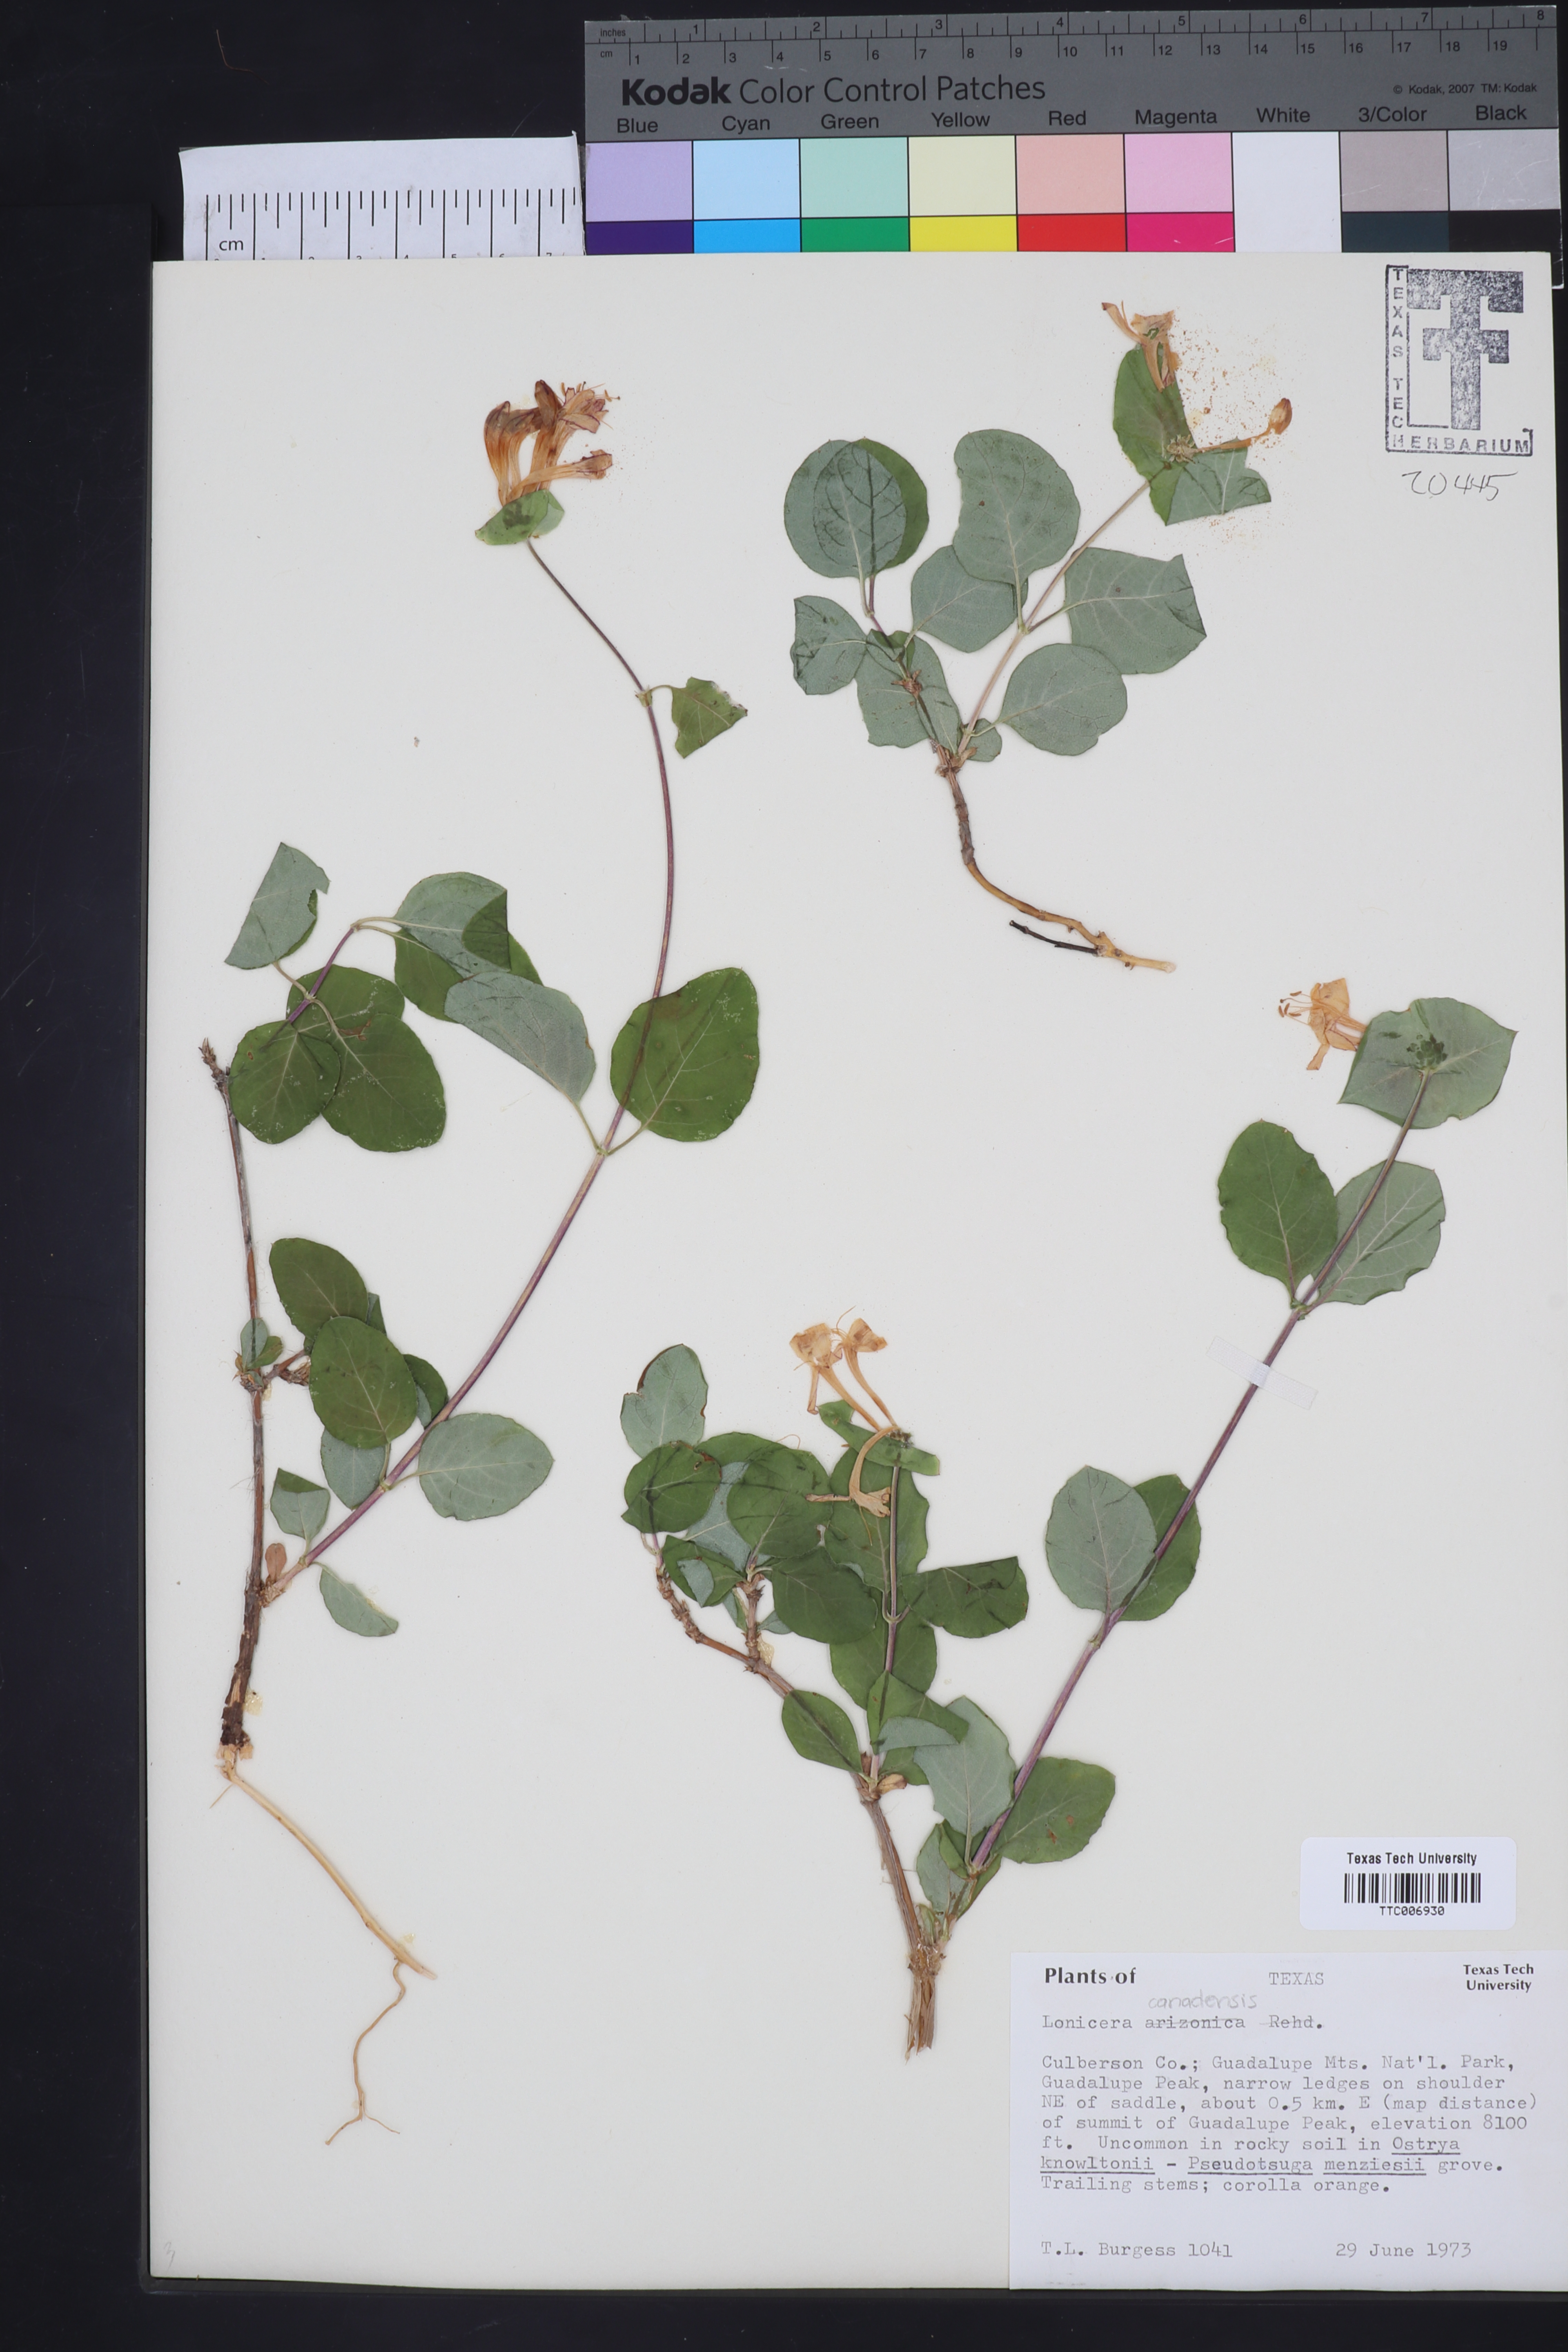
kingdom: Plantae
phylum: Tracheophyta
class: Magnoliopsida
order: Dipsacales
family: Caprifoliaceae
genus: Lonicera
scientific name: Lonicera arizonica
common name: Arizona honeysuckle
